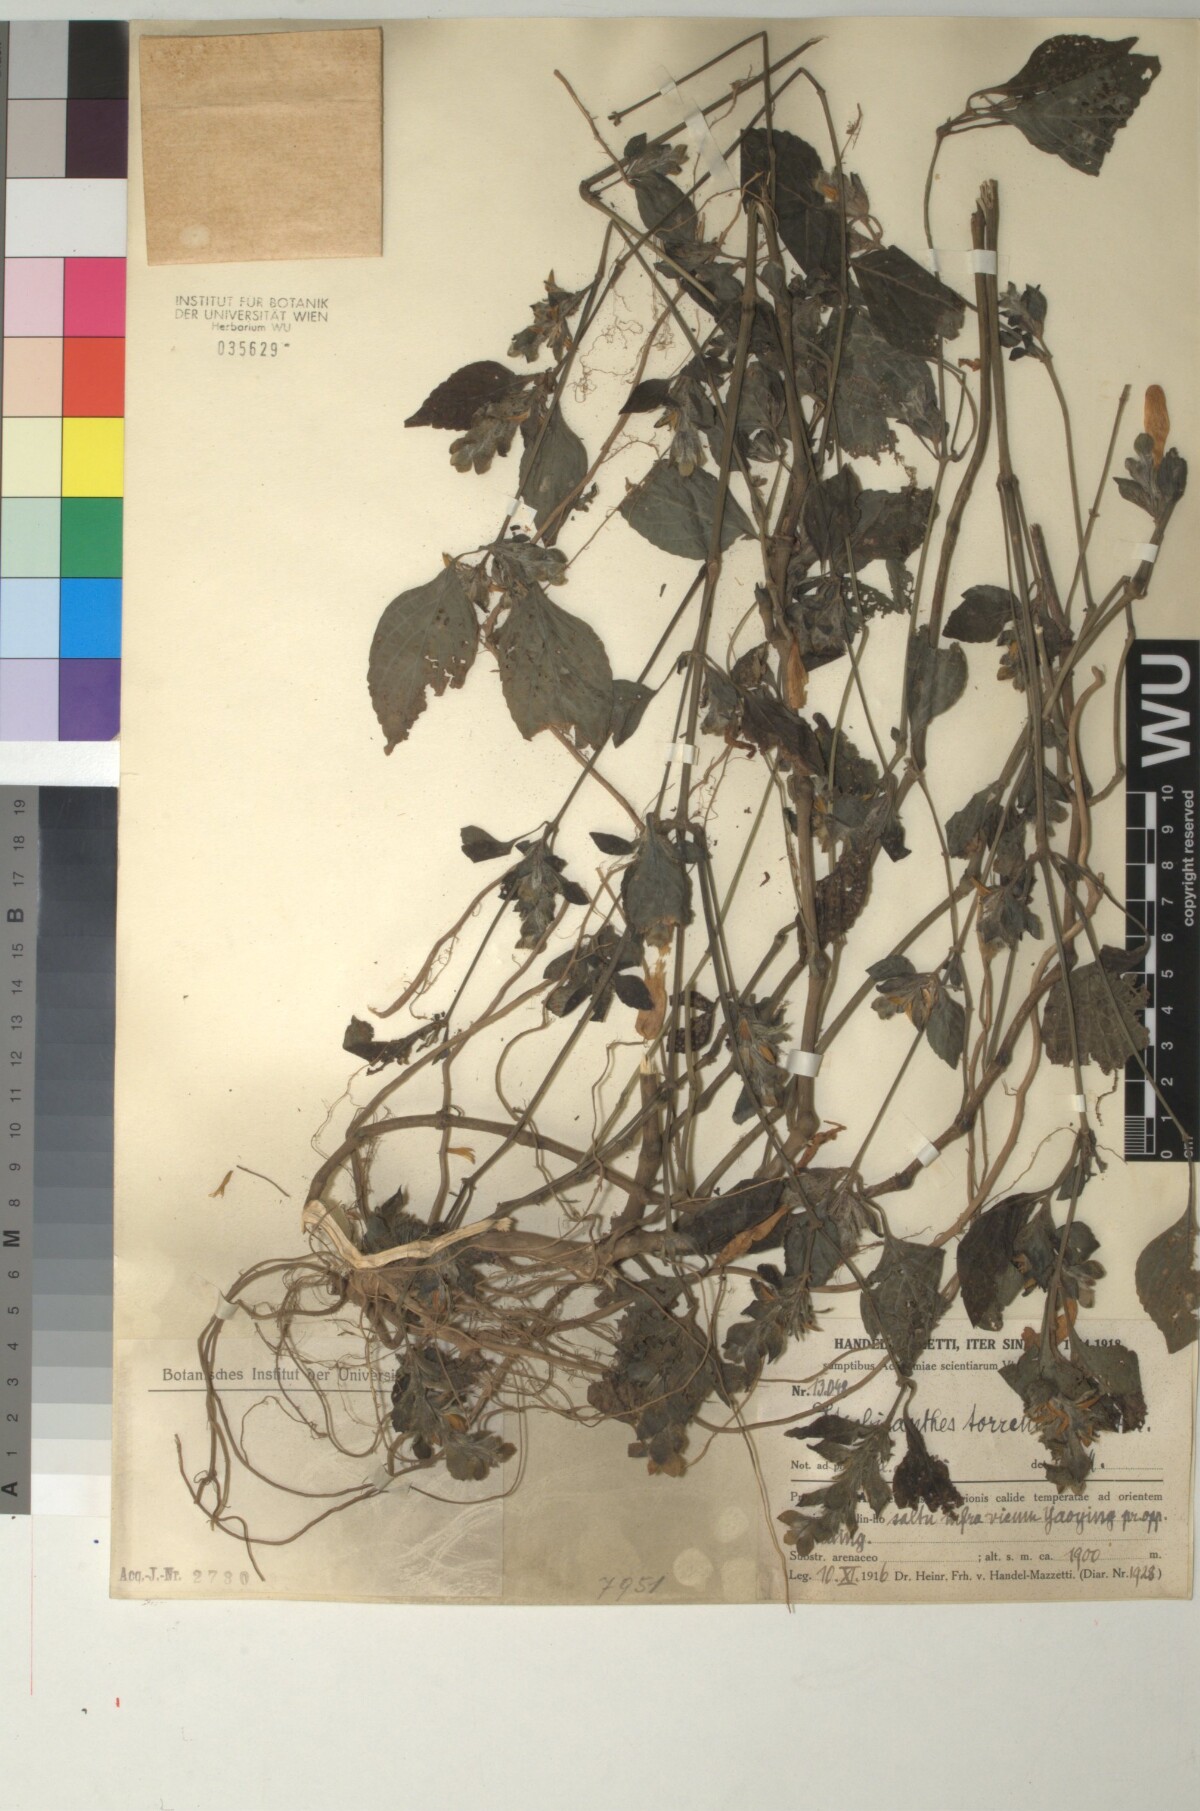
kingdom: Plantae
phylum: Tracheophyta
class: Magnoliopsida
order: Lamiales
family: Acanthaceae
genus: Strobilanthes
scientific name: Strobilanthes torrentium
